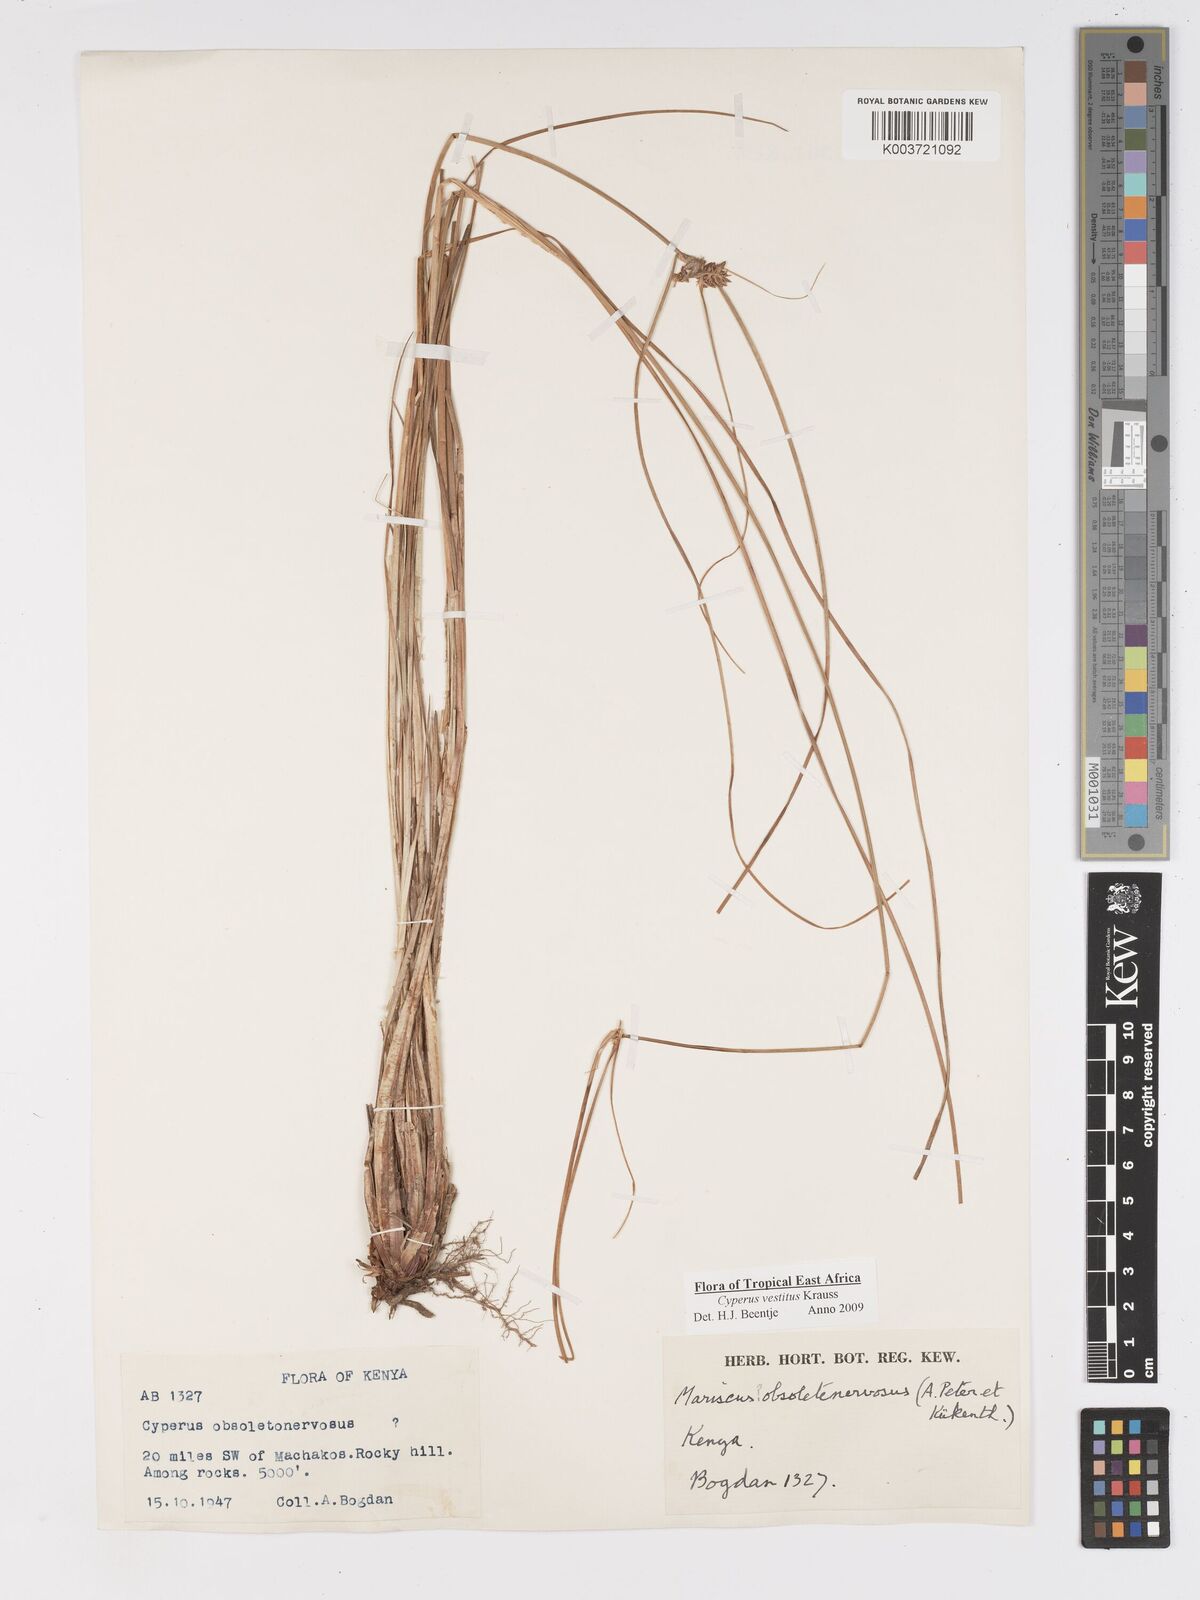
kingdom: Plantae
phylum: Tracheophyta
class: Liliopsida
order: Poales
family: Cyperaceae
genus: Cyperus
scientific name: Cyperus vestitus
